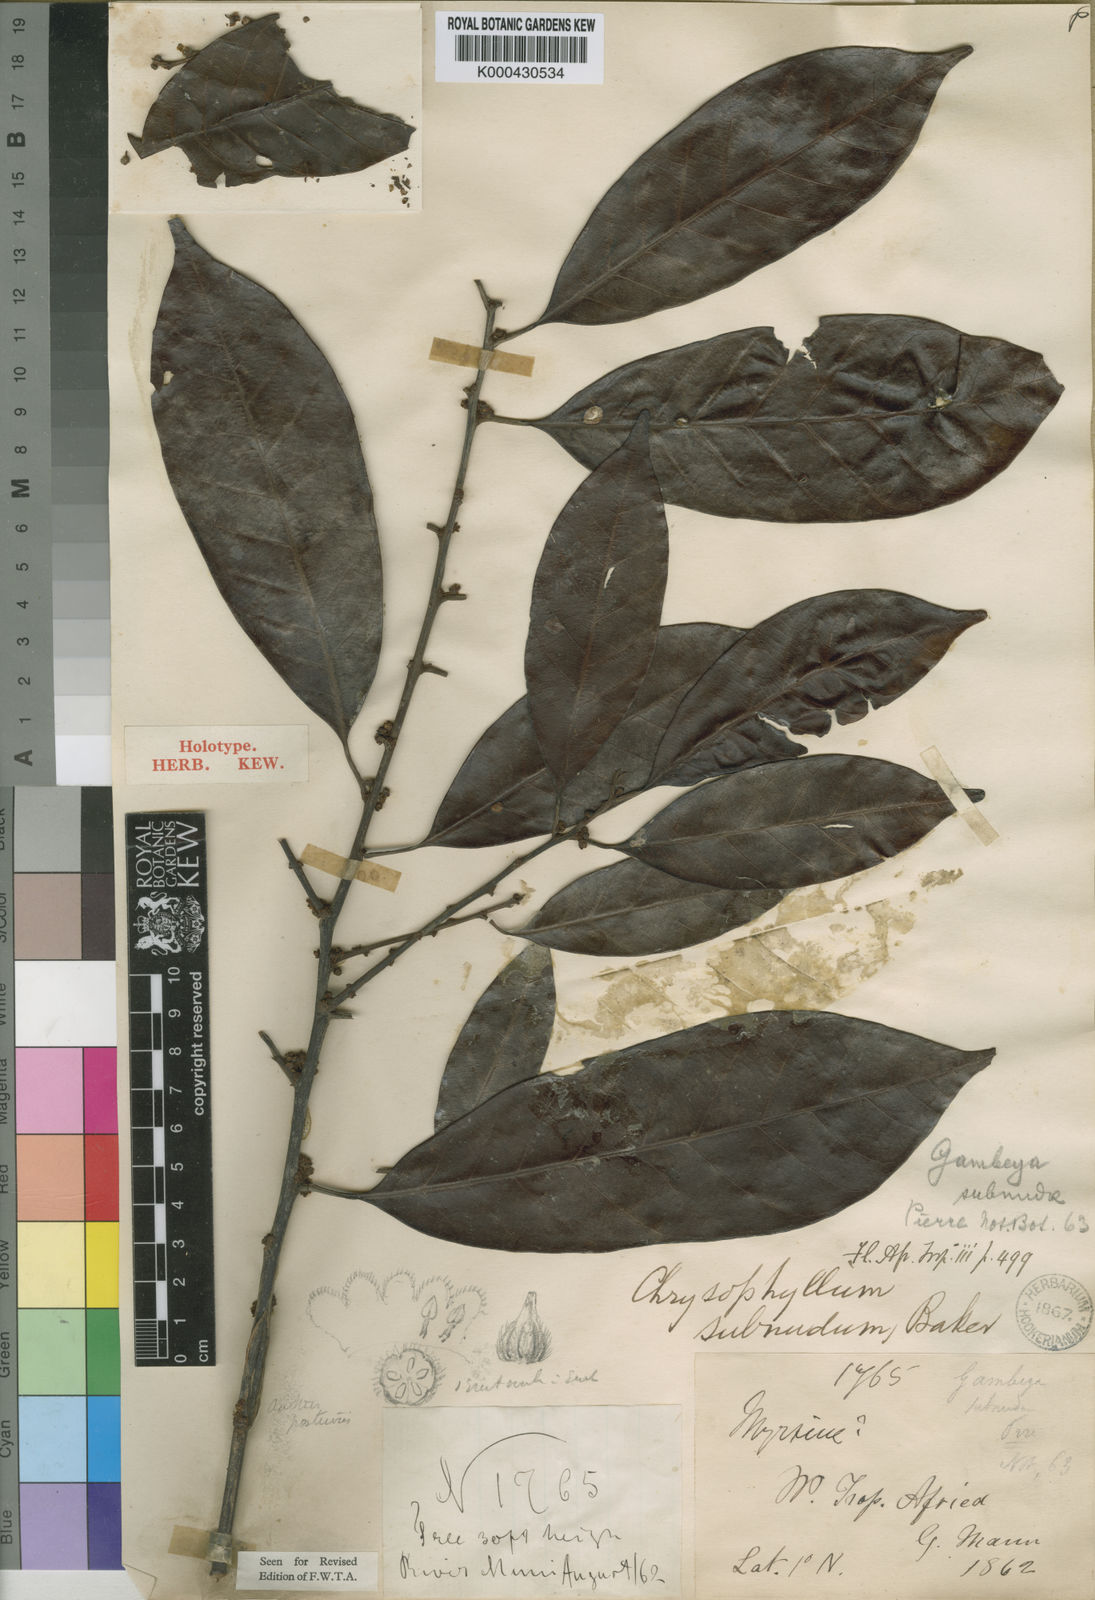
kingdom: Plantae
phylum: Tracheophyta
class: Magnoliopsida
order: Ericales
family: Sapotaceae
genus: Gambeya
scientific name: Gambeya subnuda
